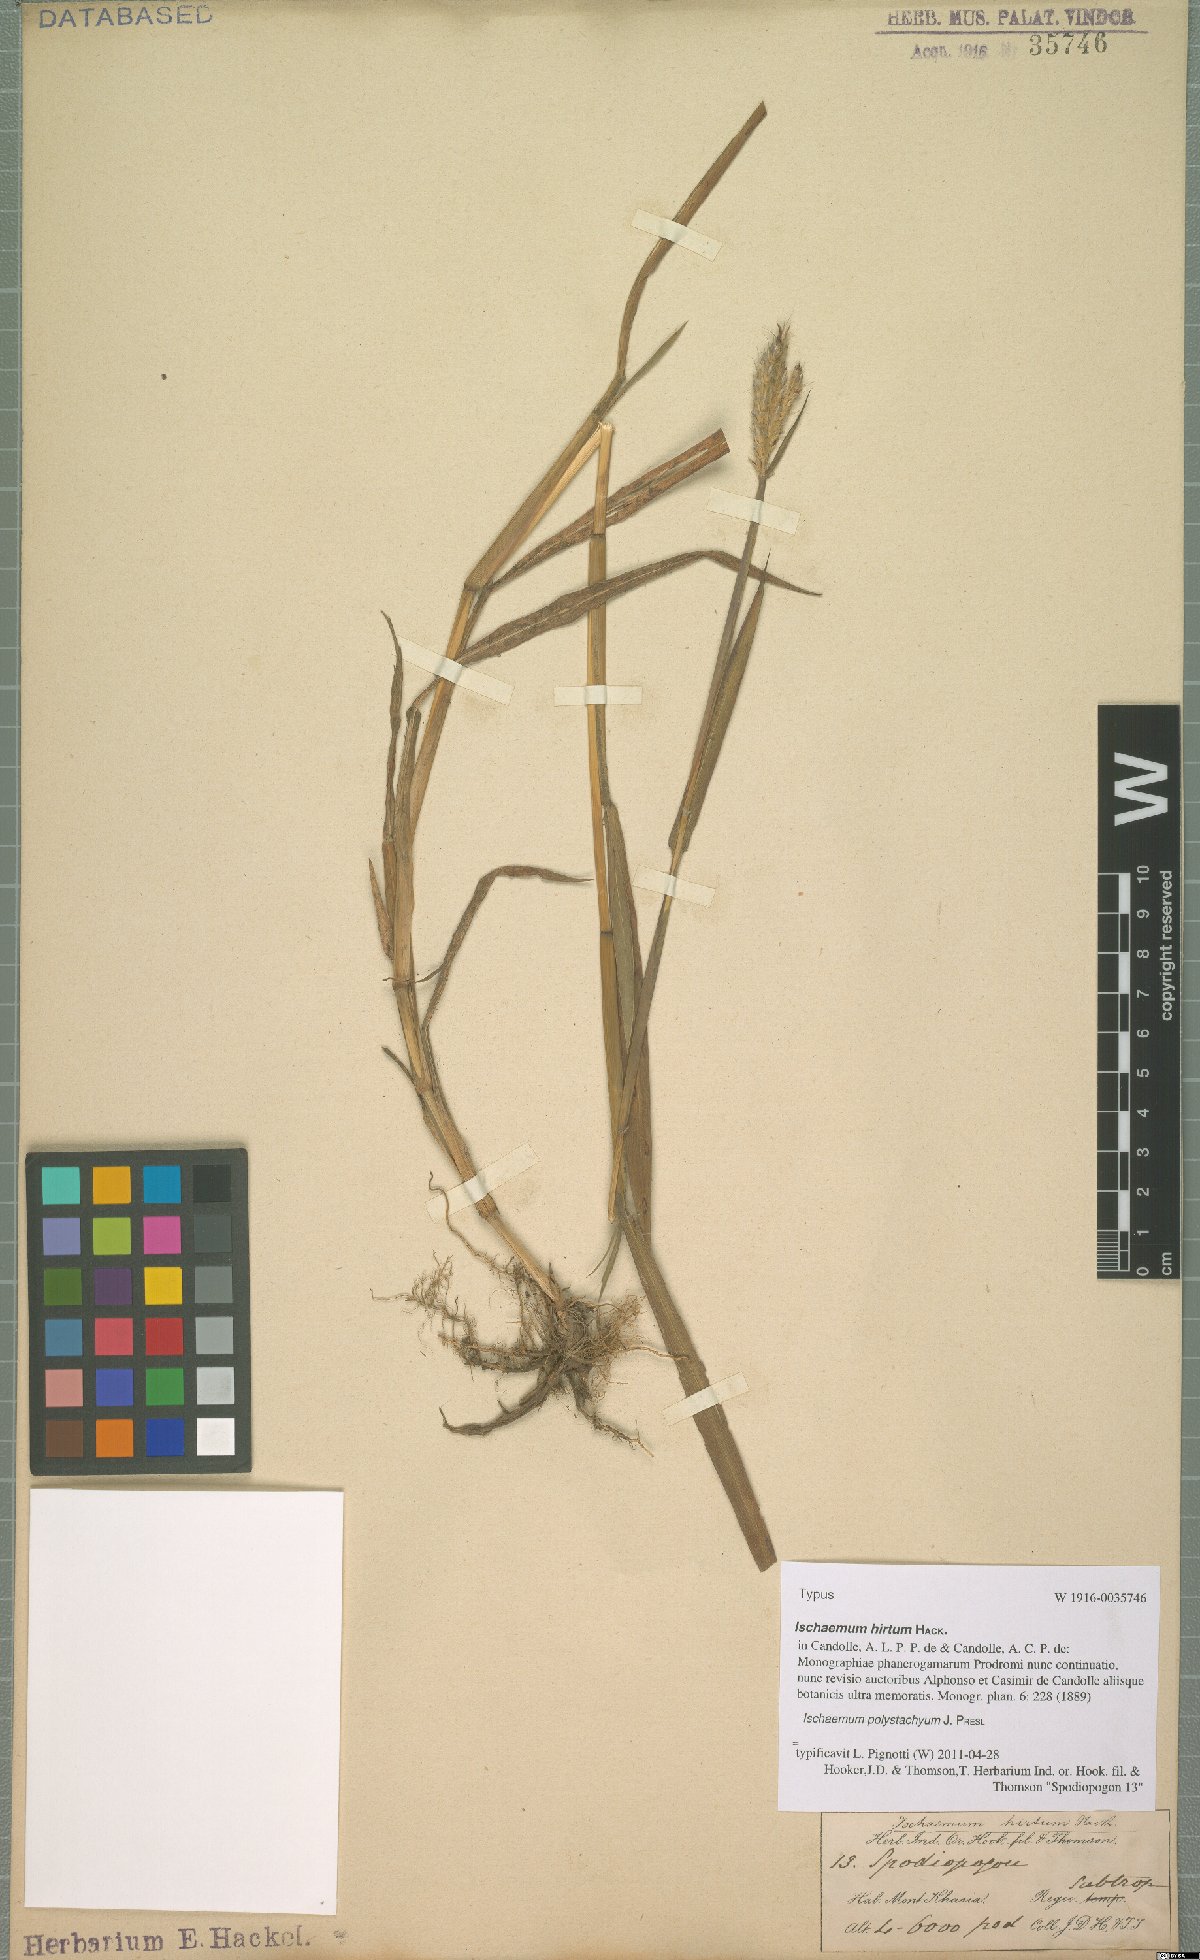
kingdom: Plantae
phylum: Tracheophyta
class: Liliopsida
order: Poales
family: Poaceae
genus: Ischaemum
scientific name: Ischaemum polystachyum
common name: Paddle grass
